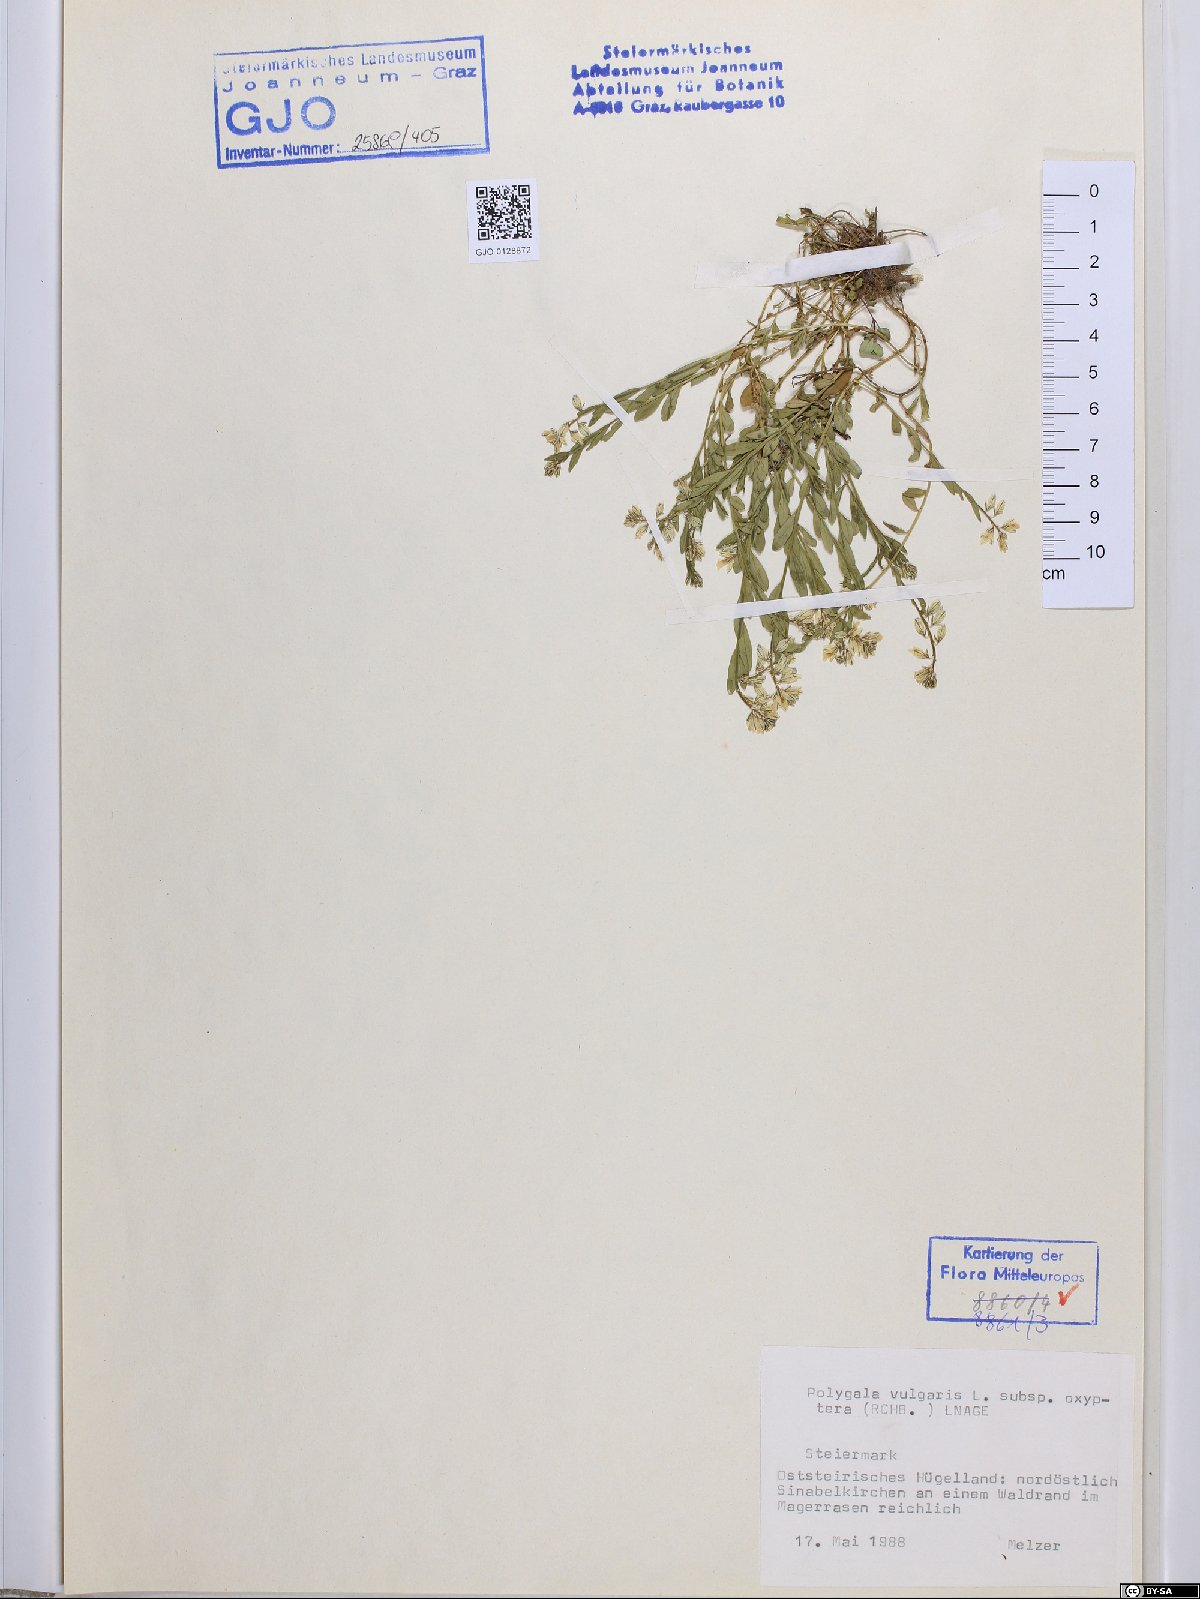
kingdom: Plantae
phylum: Tracheophyta
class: Magnoliopsida
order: Fabales
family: Polygalaceae
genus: Polygala
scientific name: Polygala vulgaris
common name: Common milkwort
